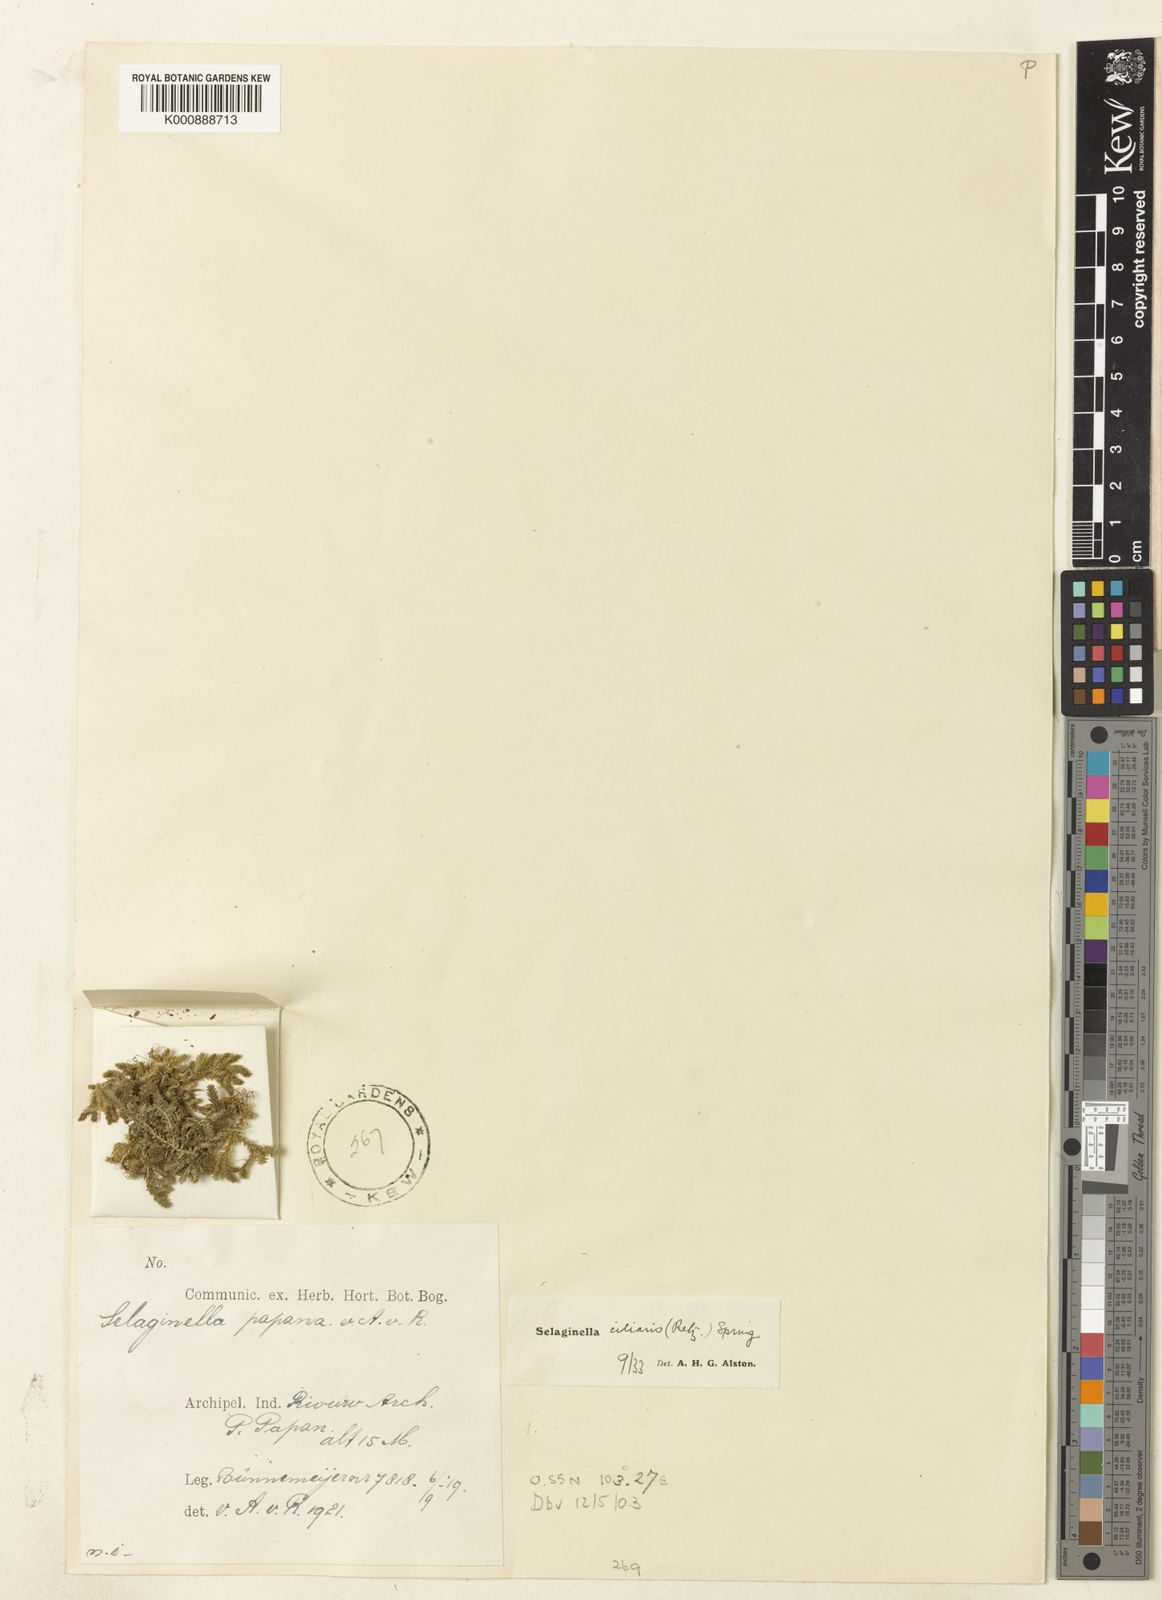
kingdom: Plantae
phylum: Tracheophyta
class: Lycopodiopsida
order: Selaginellales
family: Selaginellaceae
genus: Selaginella
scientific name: Selaginella ciliaris
